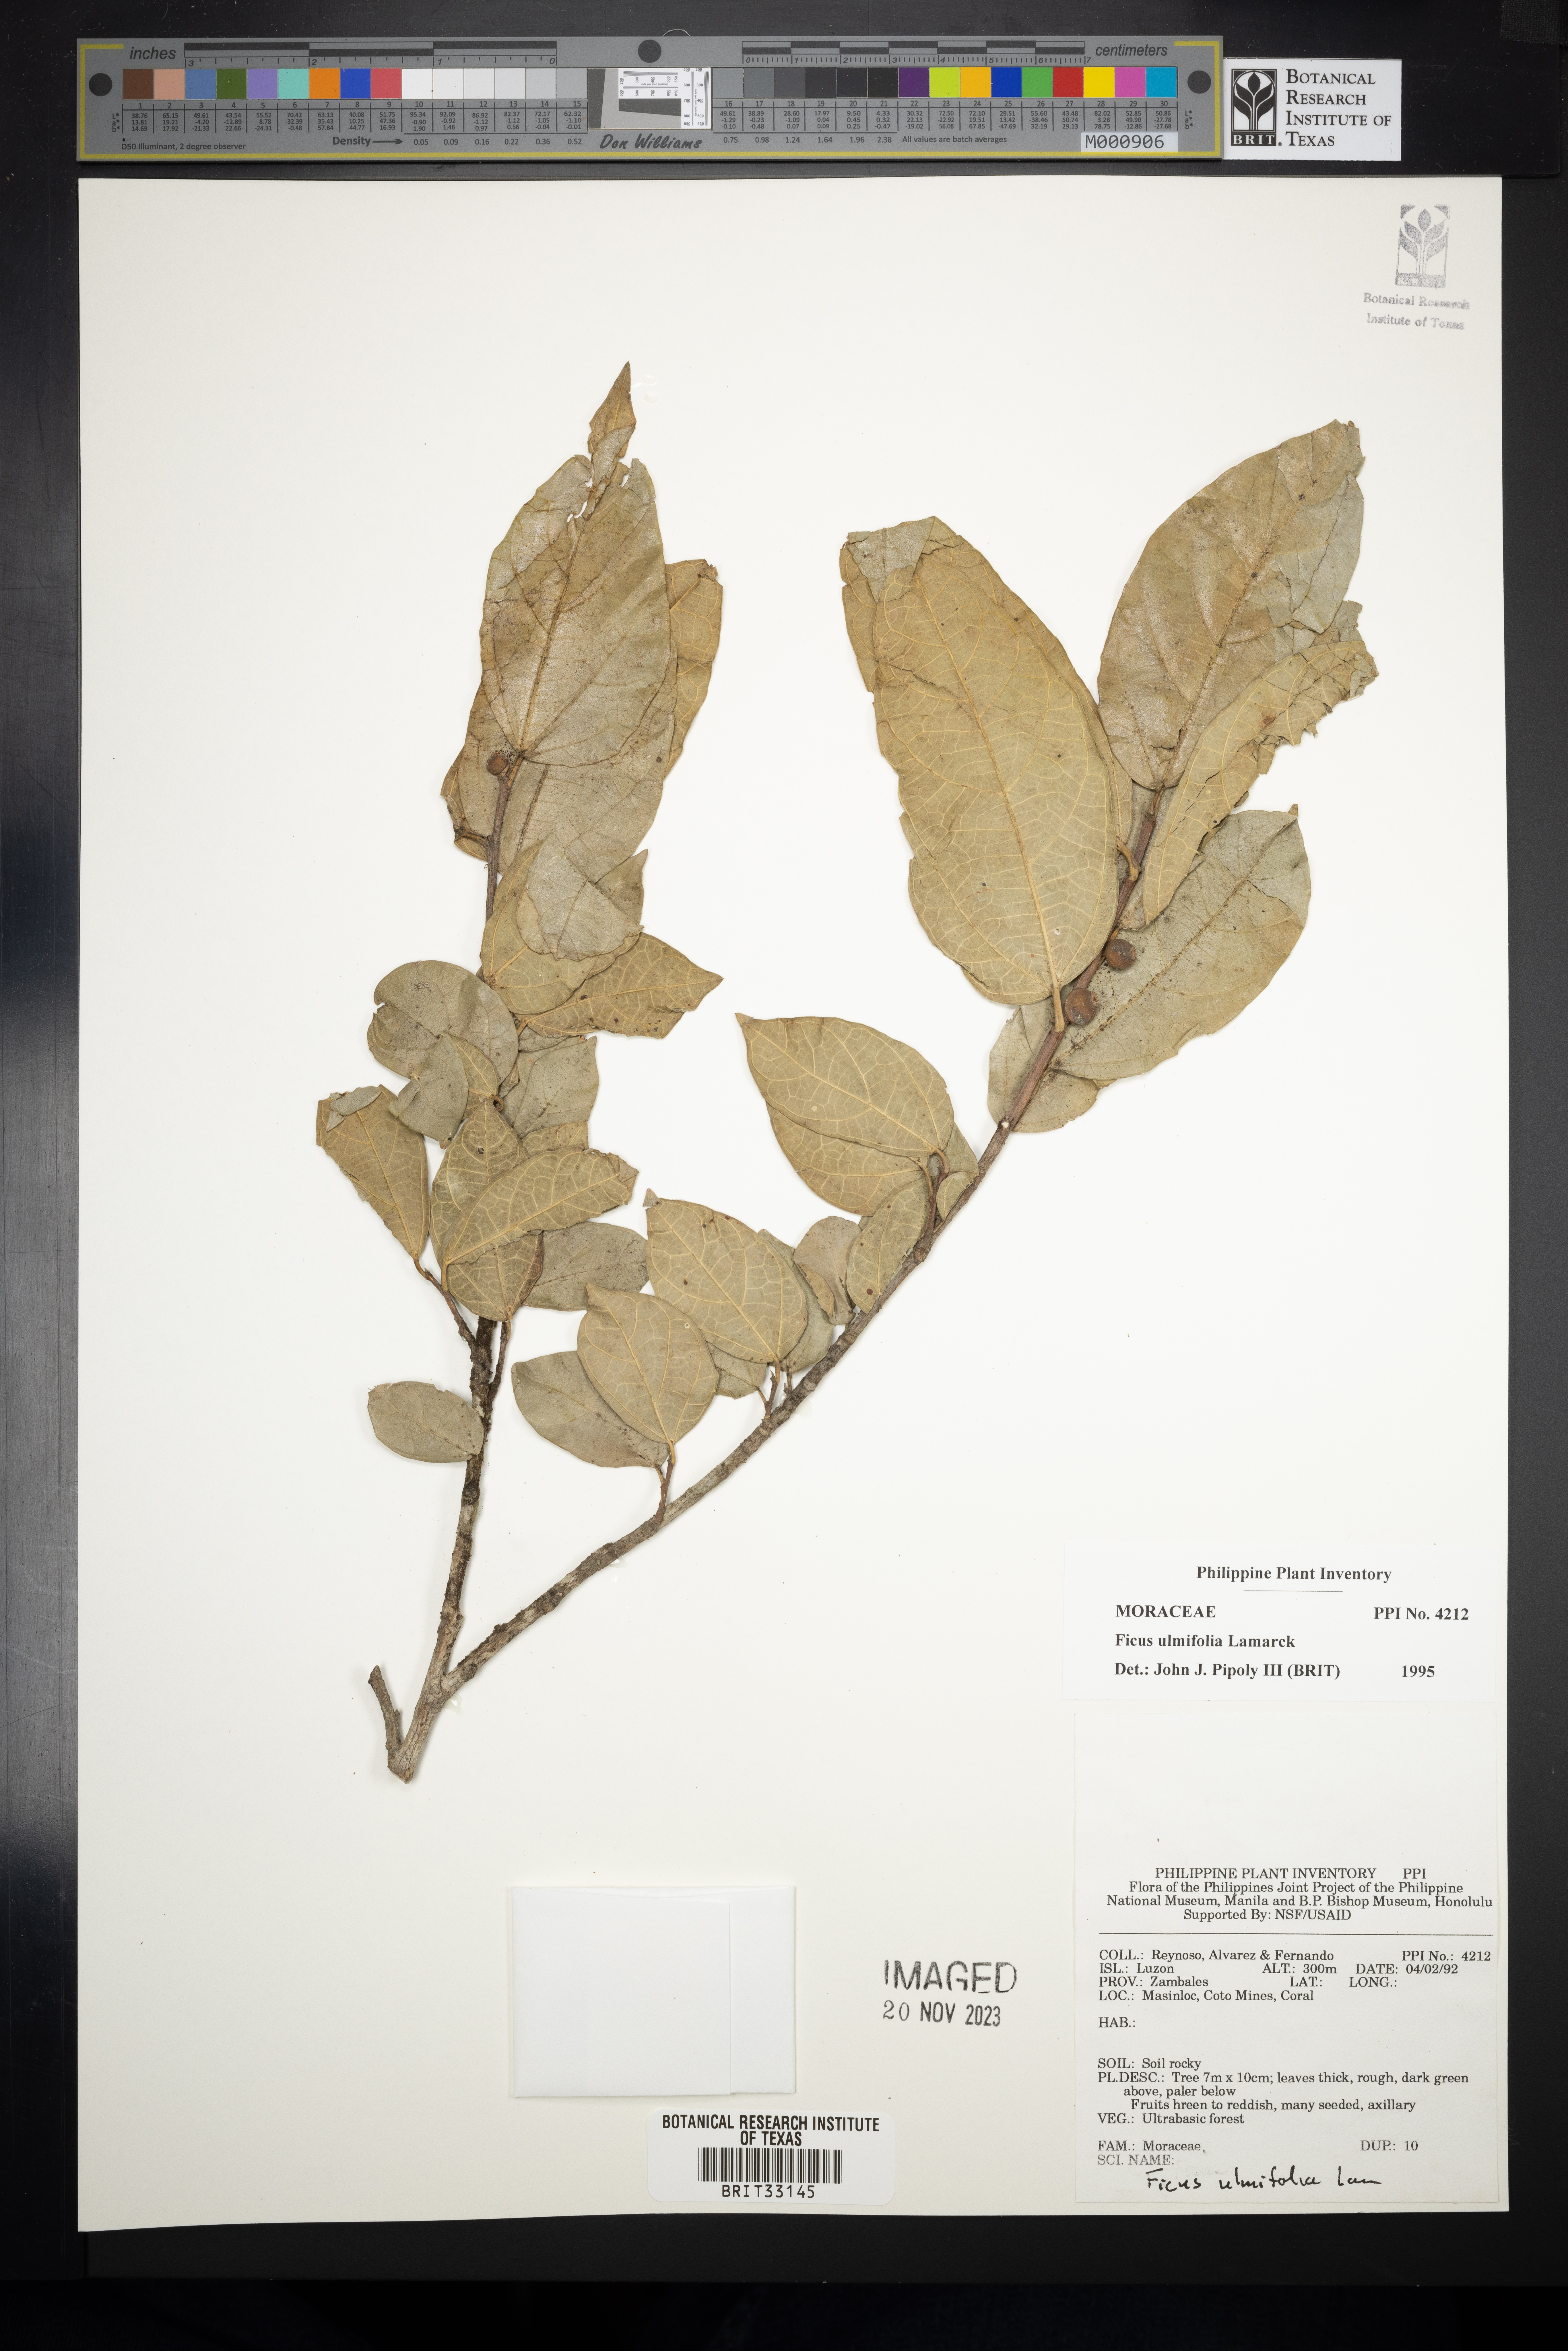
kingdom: Plantae
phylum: Tracheophyta
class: Magnoliopsida
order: Rosales
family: Moraceae
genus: Ficus
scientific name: Ficus ulmifolia
